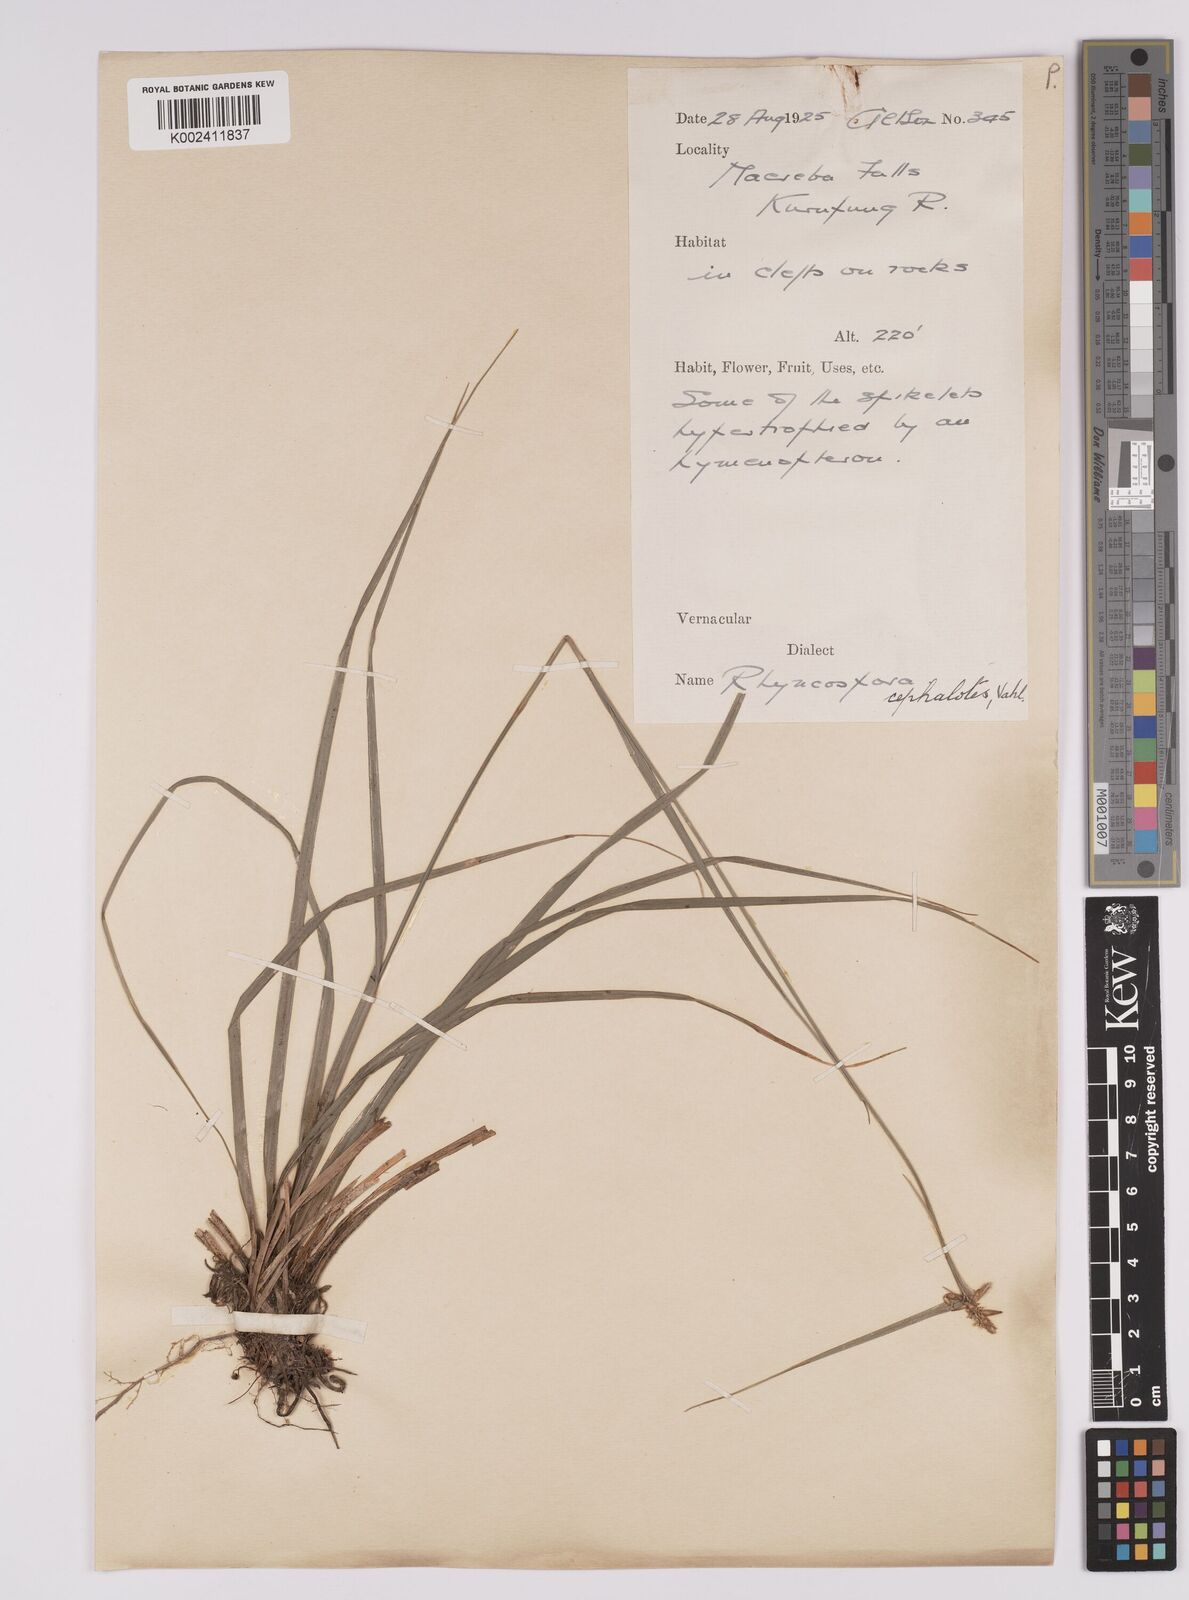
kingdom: Plantae
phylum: Tracheophyta
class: Liliopsida
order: Poales
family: Cyperaceae
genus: Rhynchospora
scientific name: Rhynchospora cephalotes
